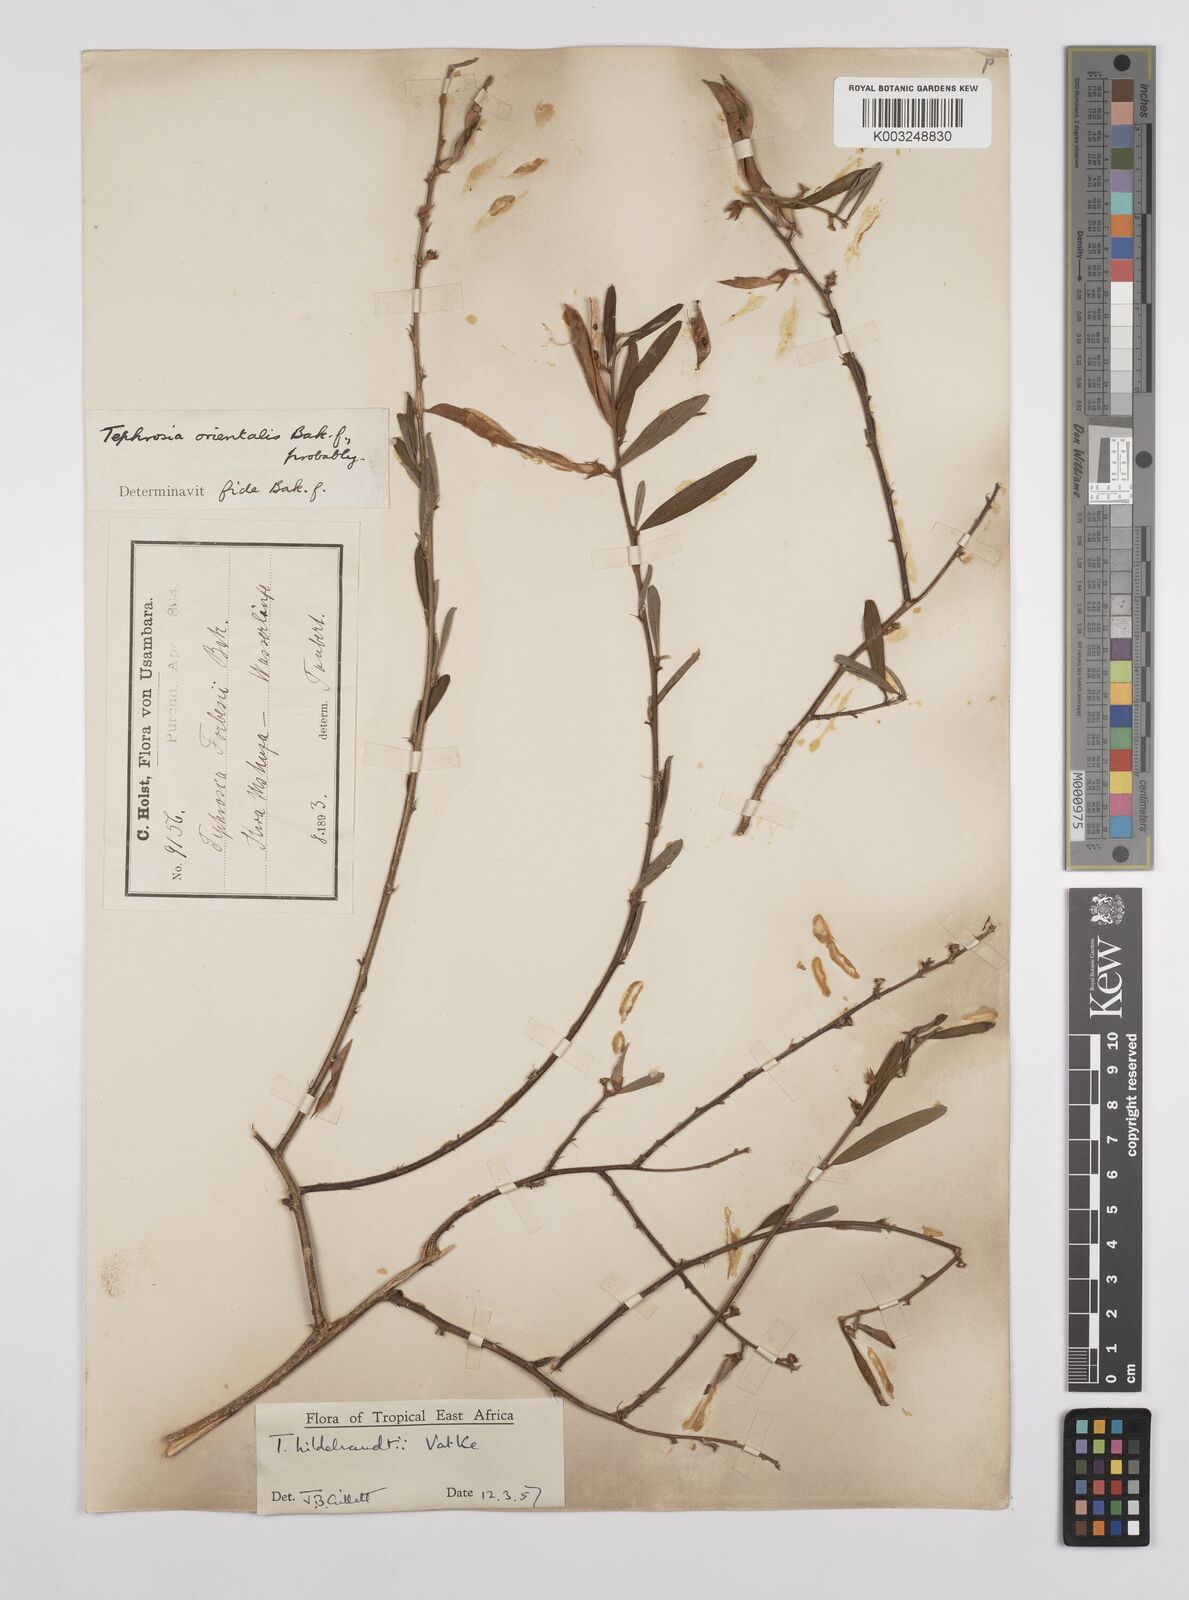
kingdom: Plantae
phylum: Tracheophyta
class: Magnoliopsida
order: Fabales
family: Fabaceae
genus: Tephrosia
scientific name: Tephrosia hildebrandtii
